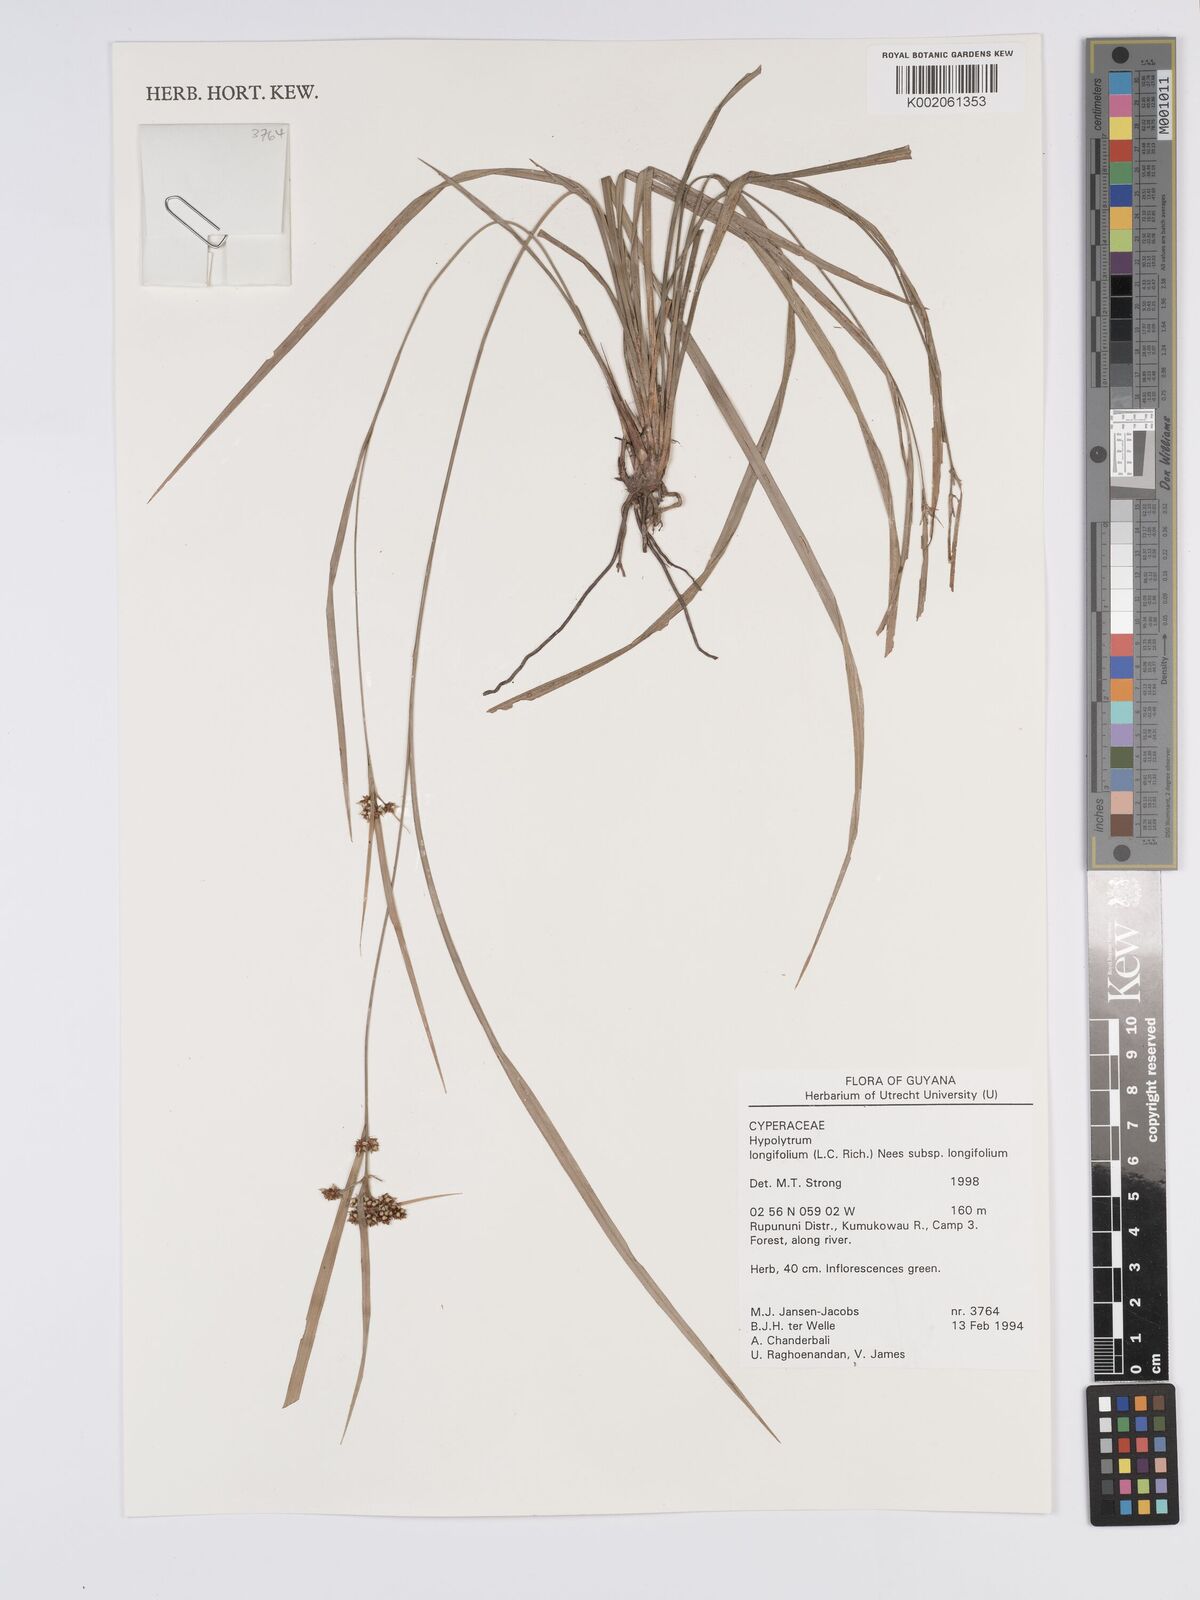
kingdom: Plantae
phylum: Tracheophyta
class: Liliopsida
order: Poales
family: Cyperaceae
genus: Hypolytrum
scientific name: Hypolytrum longifolium
